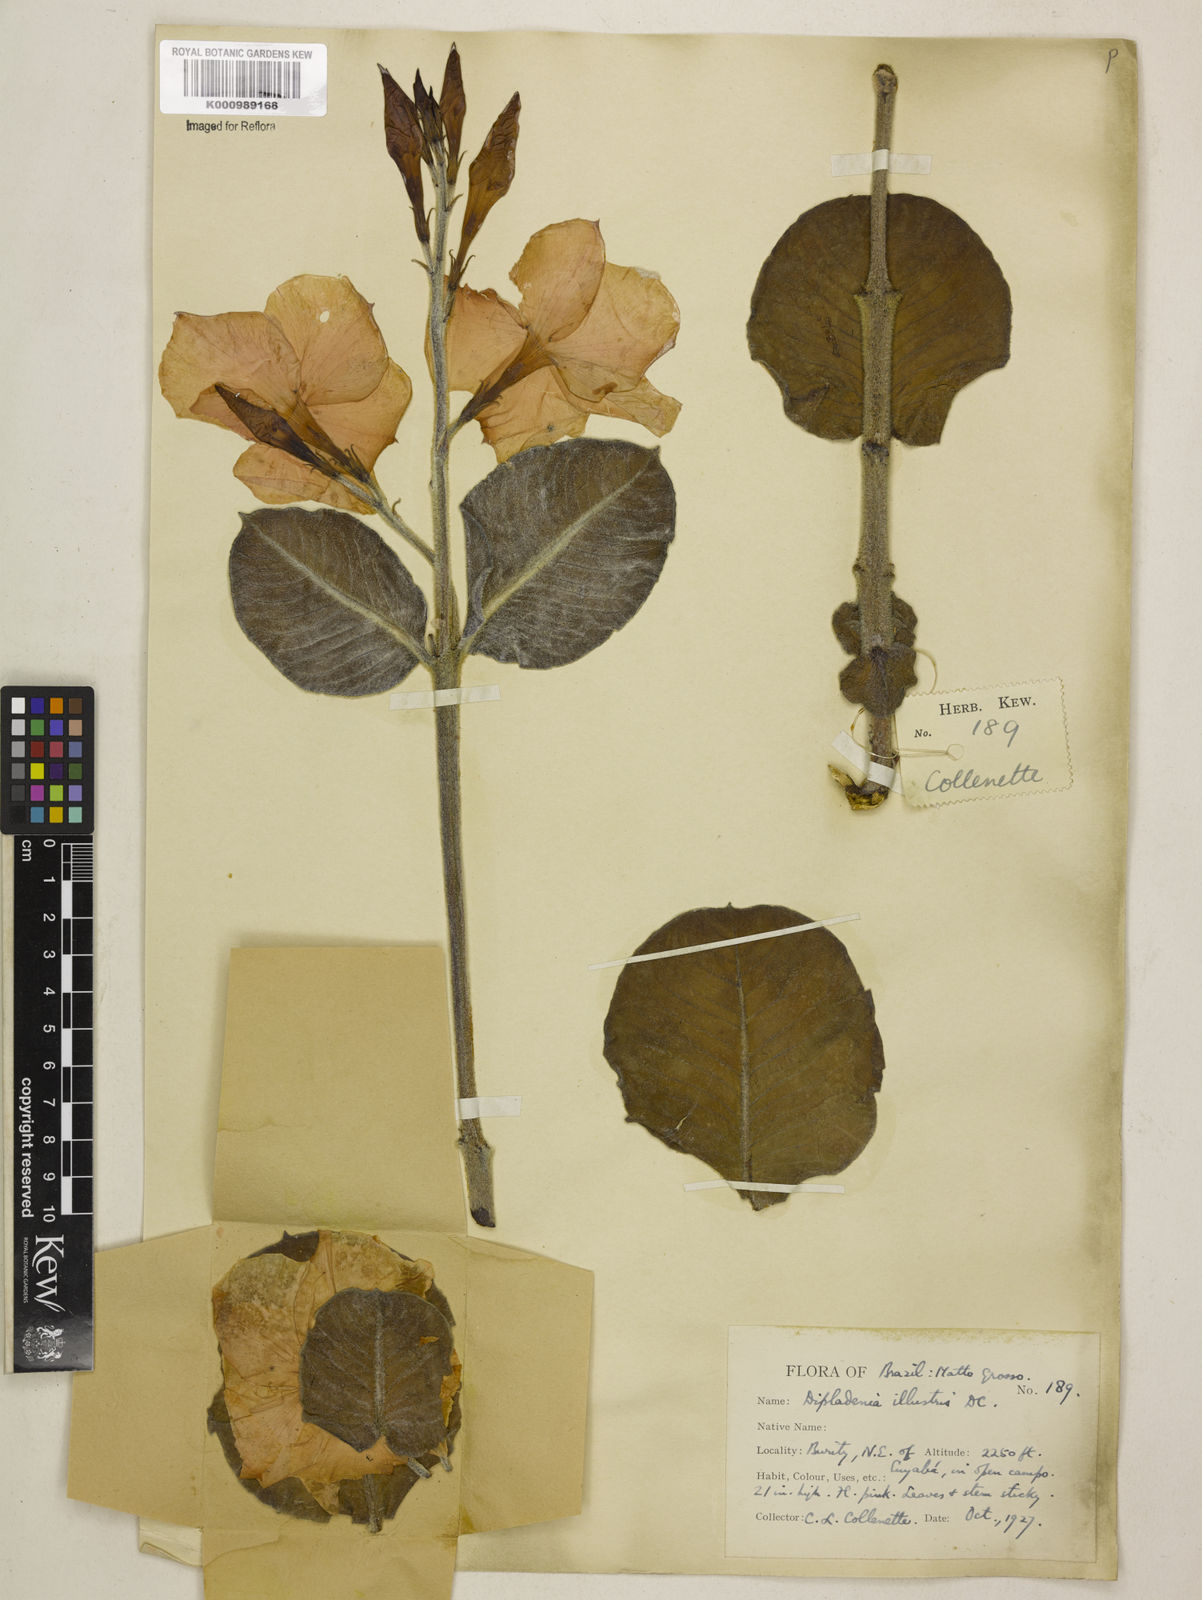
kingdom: Plantae
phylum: Tracheophyta
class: Magnoliopsida
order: Gentianales
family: Apocynaceae
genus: Mandevilla
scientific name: Mandevilla illustris
